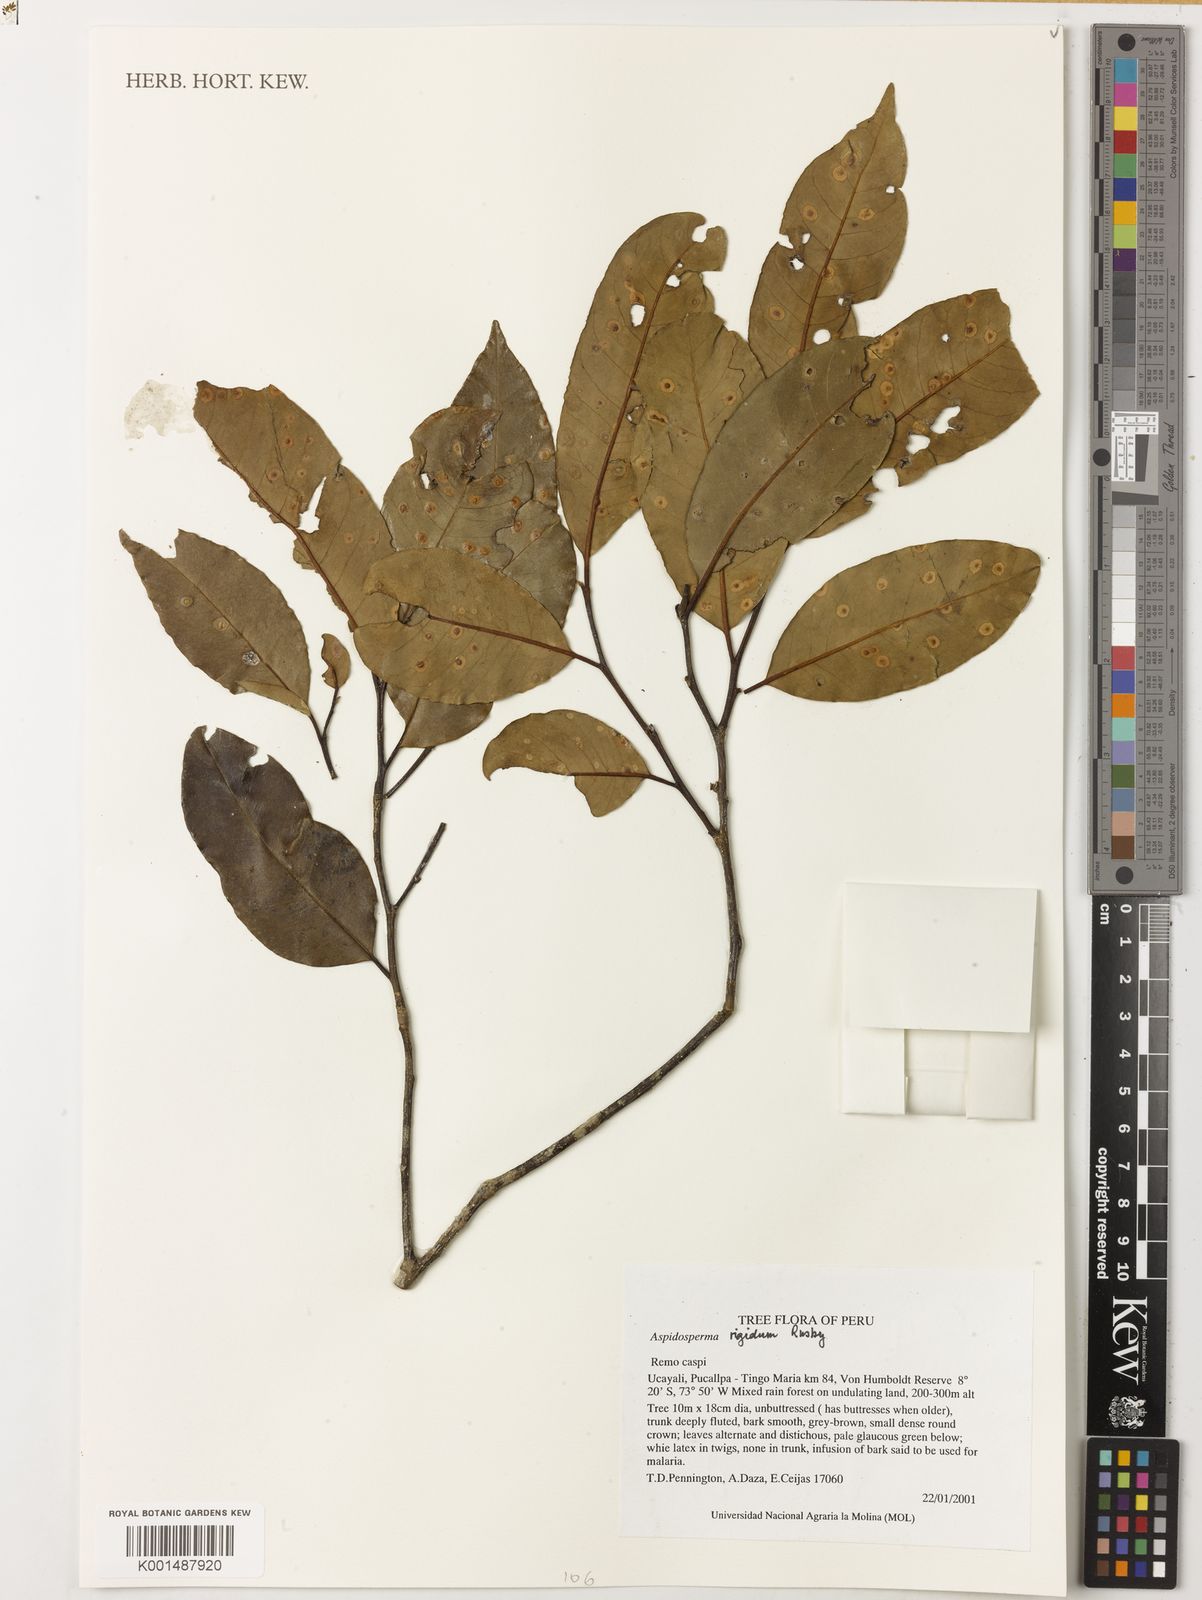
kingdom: Plantae
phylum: Tracheophyta
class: Magnoliopsida
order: Gentianales
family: Apocynaceae
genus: Aspidosperma
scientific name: Aspidosperma rigidum
